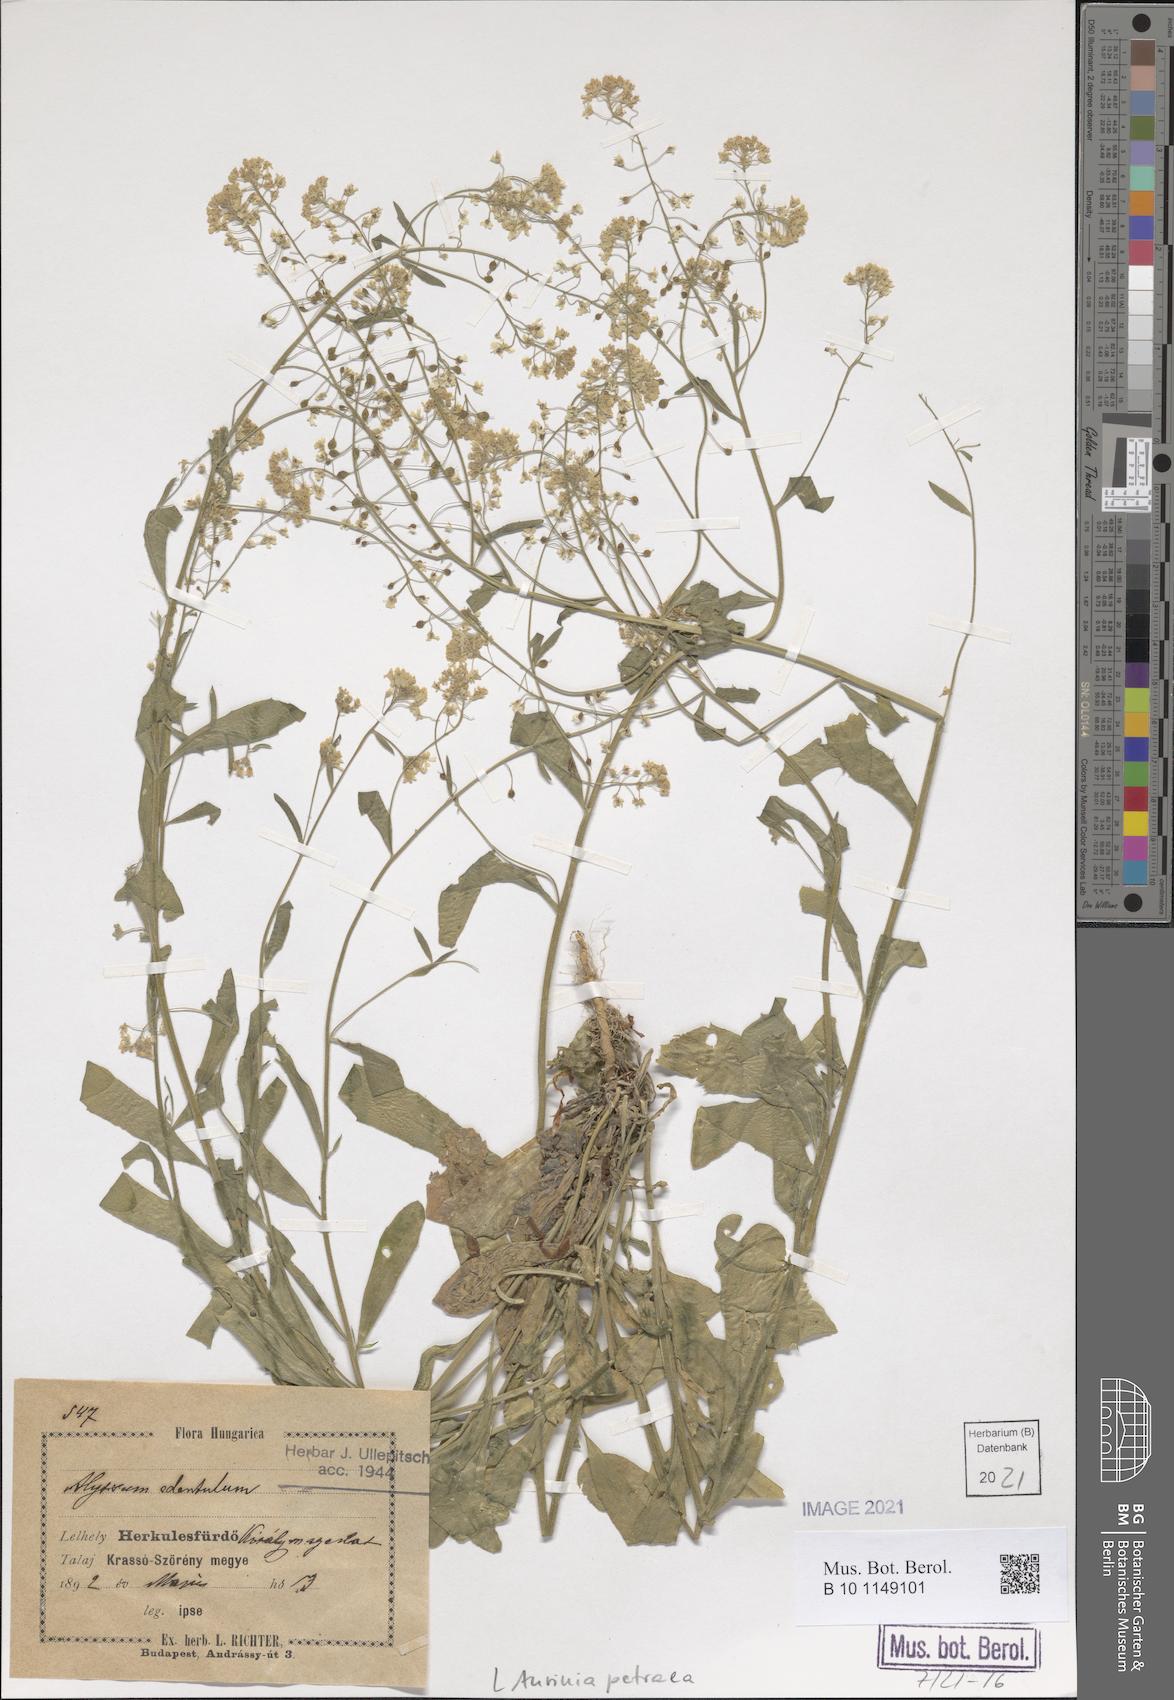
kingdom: Plantae
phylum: Tracheophyta
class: Magnoliopsida
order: Brassicales
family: Brassicaceae
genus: Aurinia
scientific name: Aurinia petraea
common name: Goldentuft
